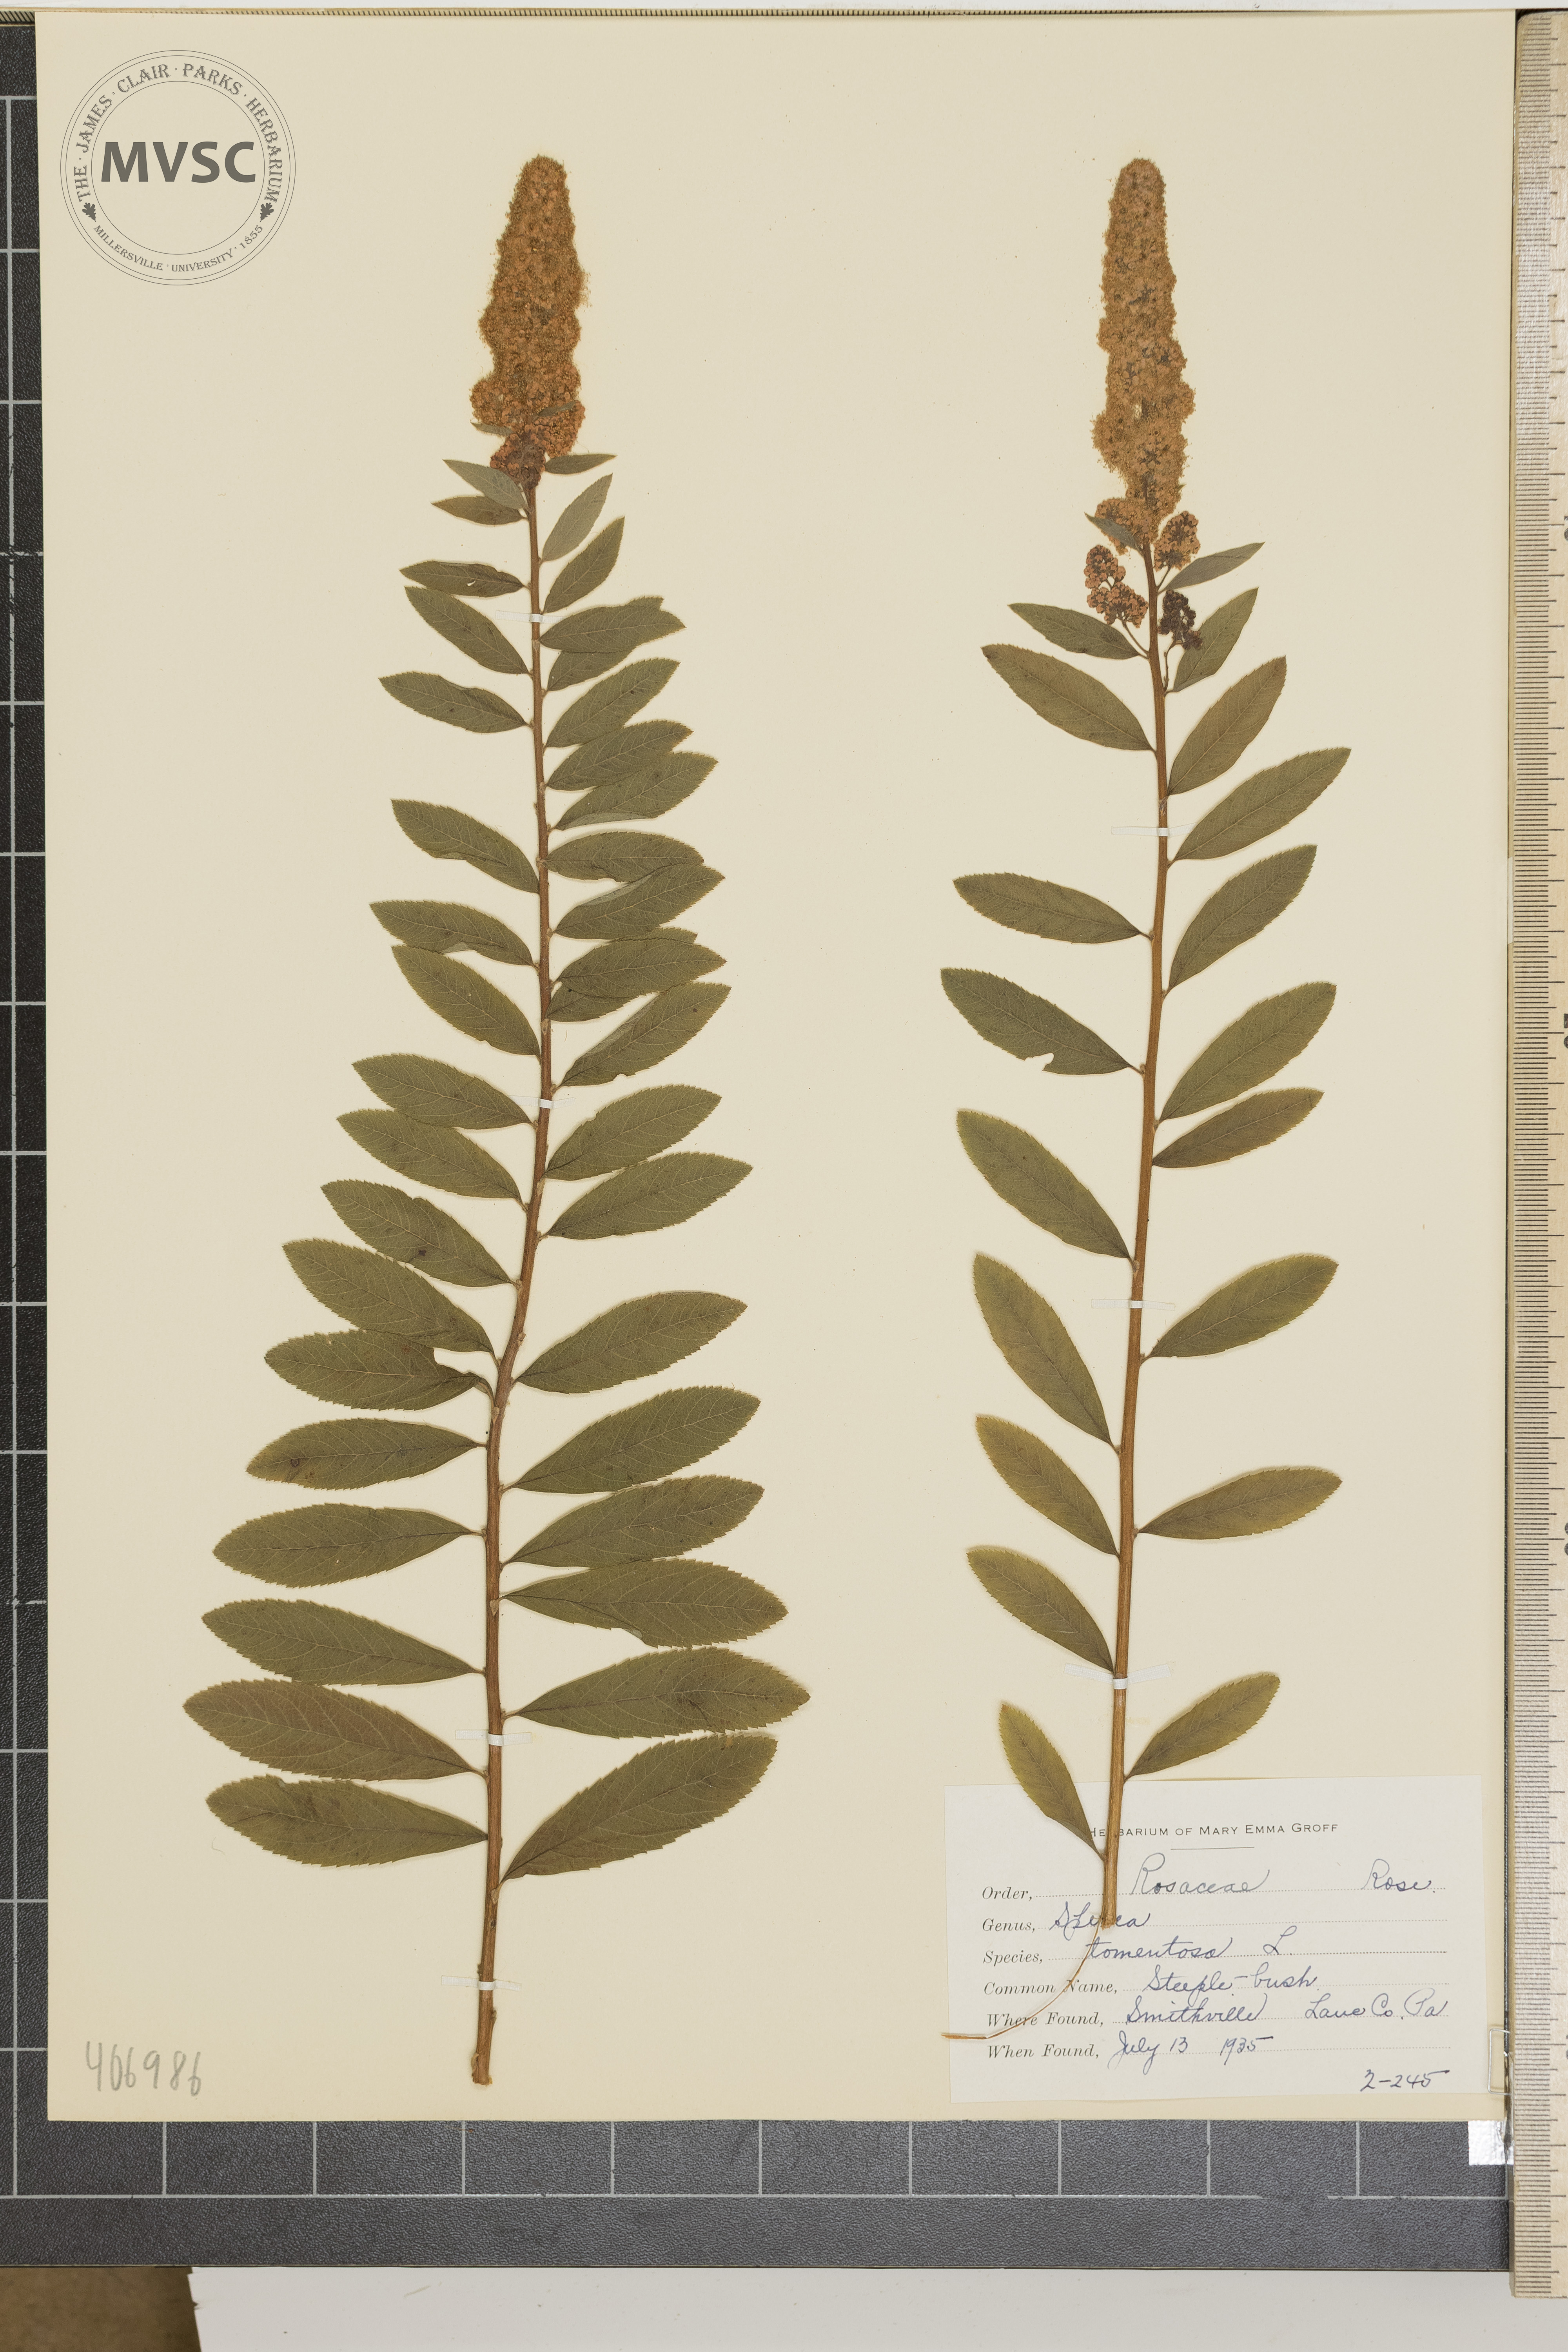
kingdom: Plantae
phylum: Tracheophyta
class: Magnoliopsida
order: Rosales
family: Rosaceae
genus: Spiraea
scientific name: Spiraea tomentosa
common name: steeple-bush
